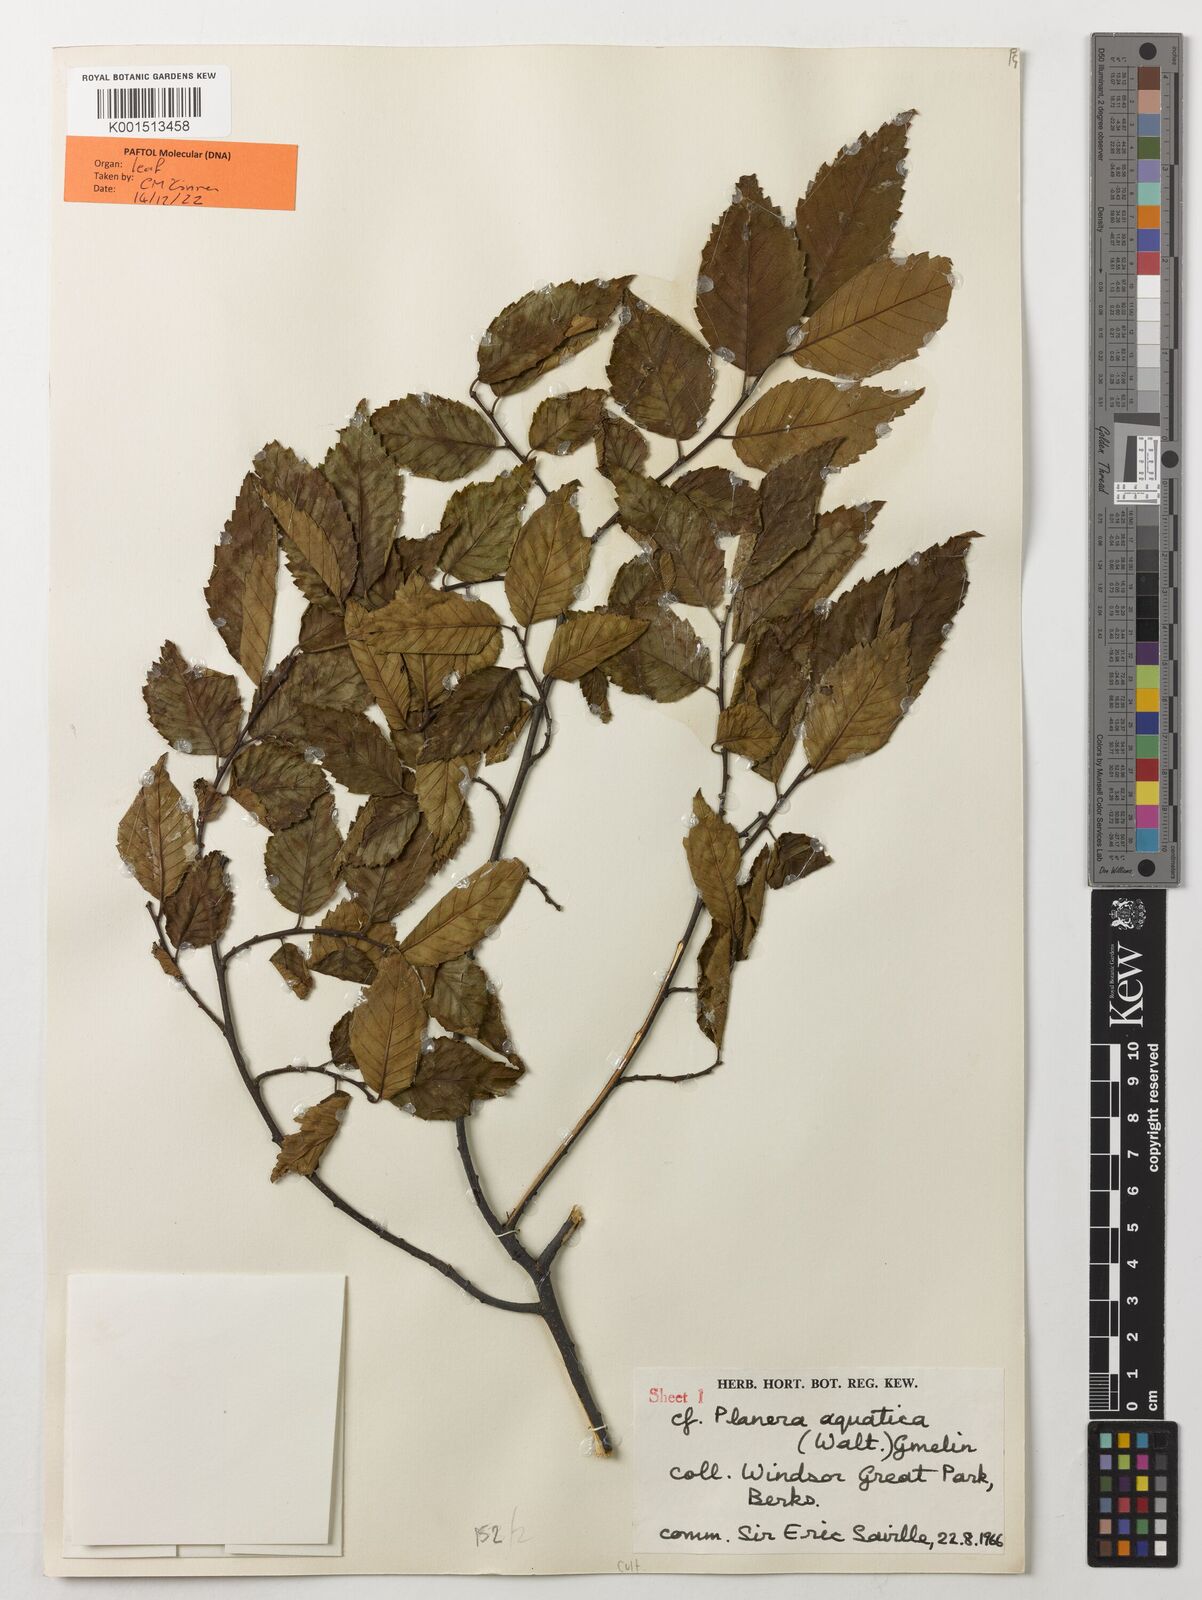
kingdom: Plantae
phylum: Tracheophyta
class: Magnoliopsida
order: Rosales
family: Ulmaceae
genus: Planera
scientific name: Planera aquatica
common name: Water-elm
